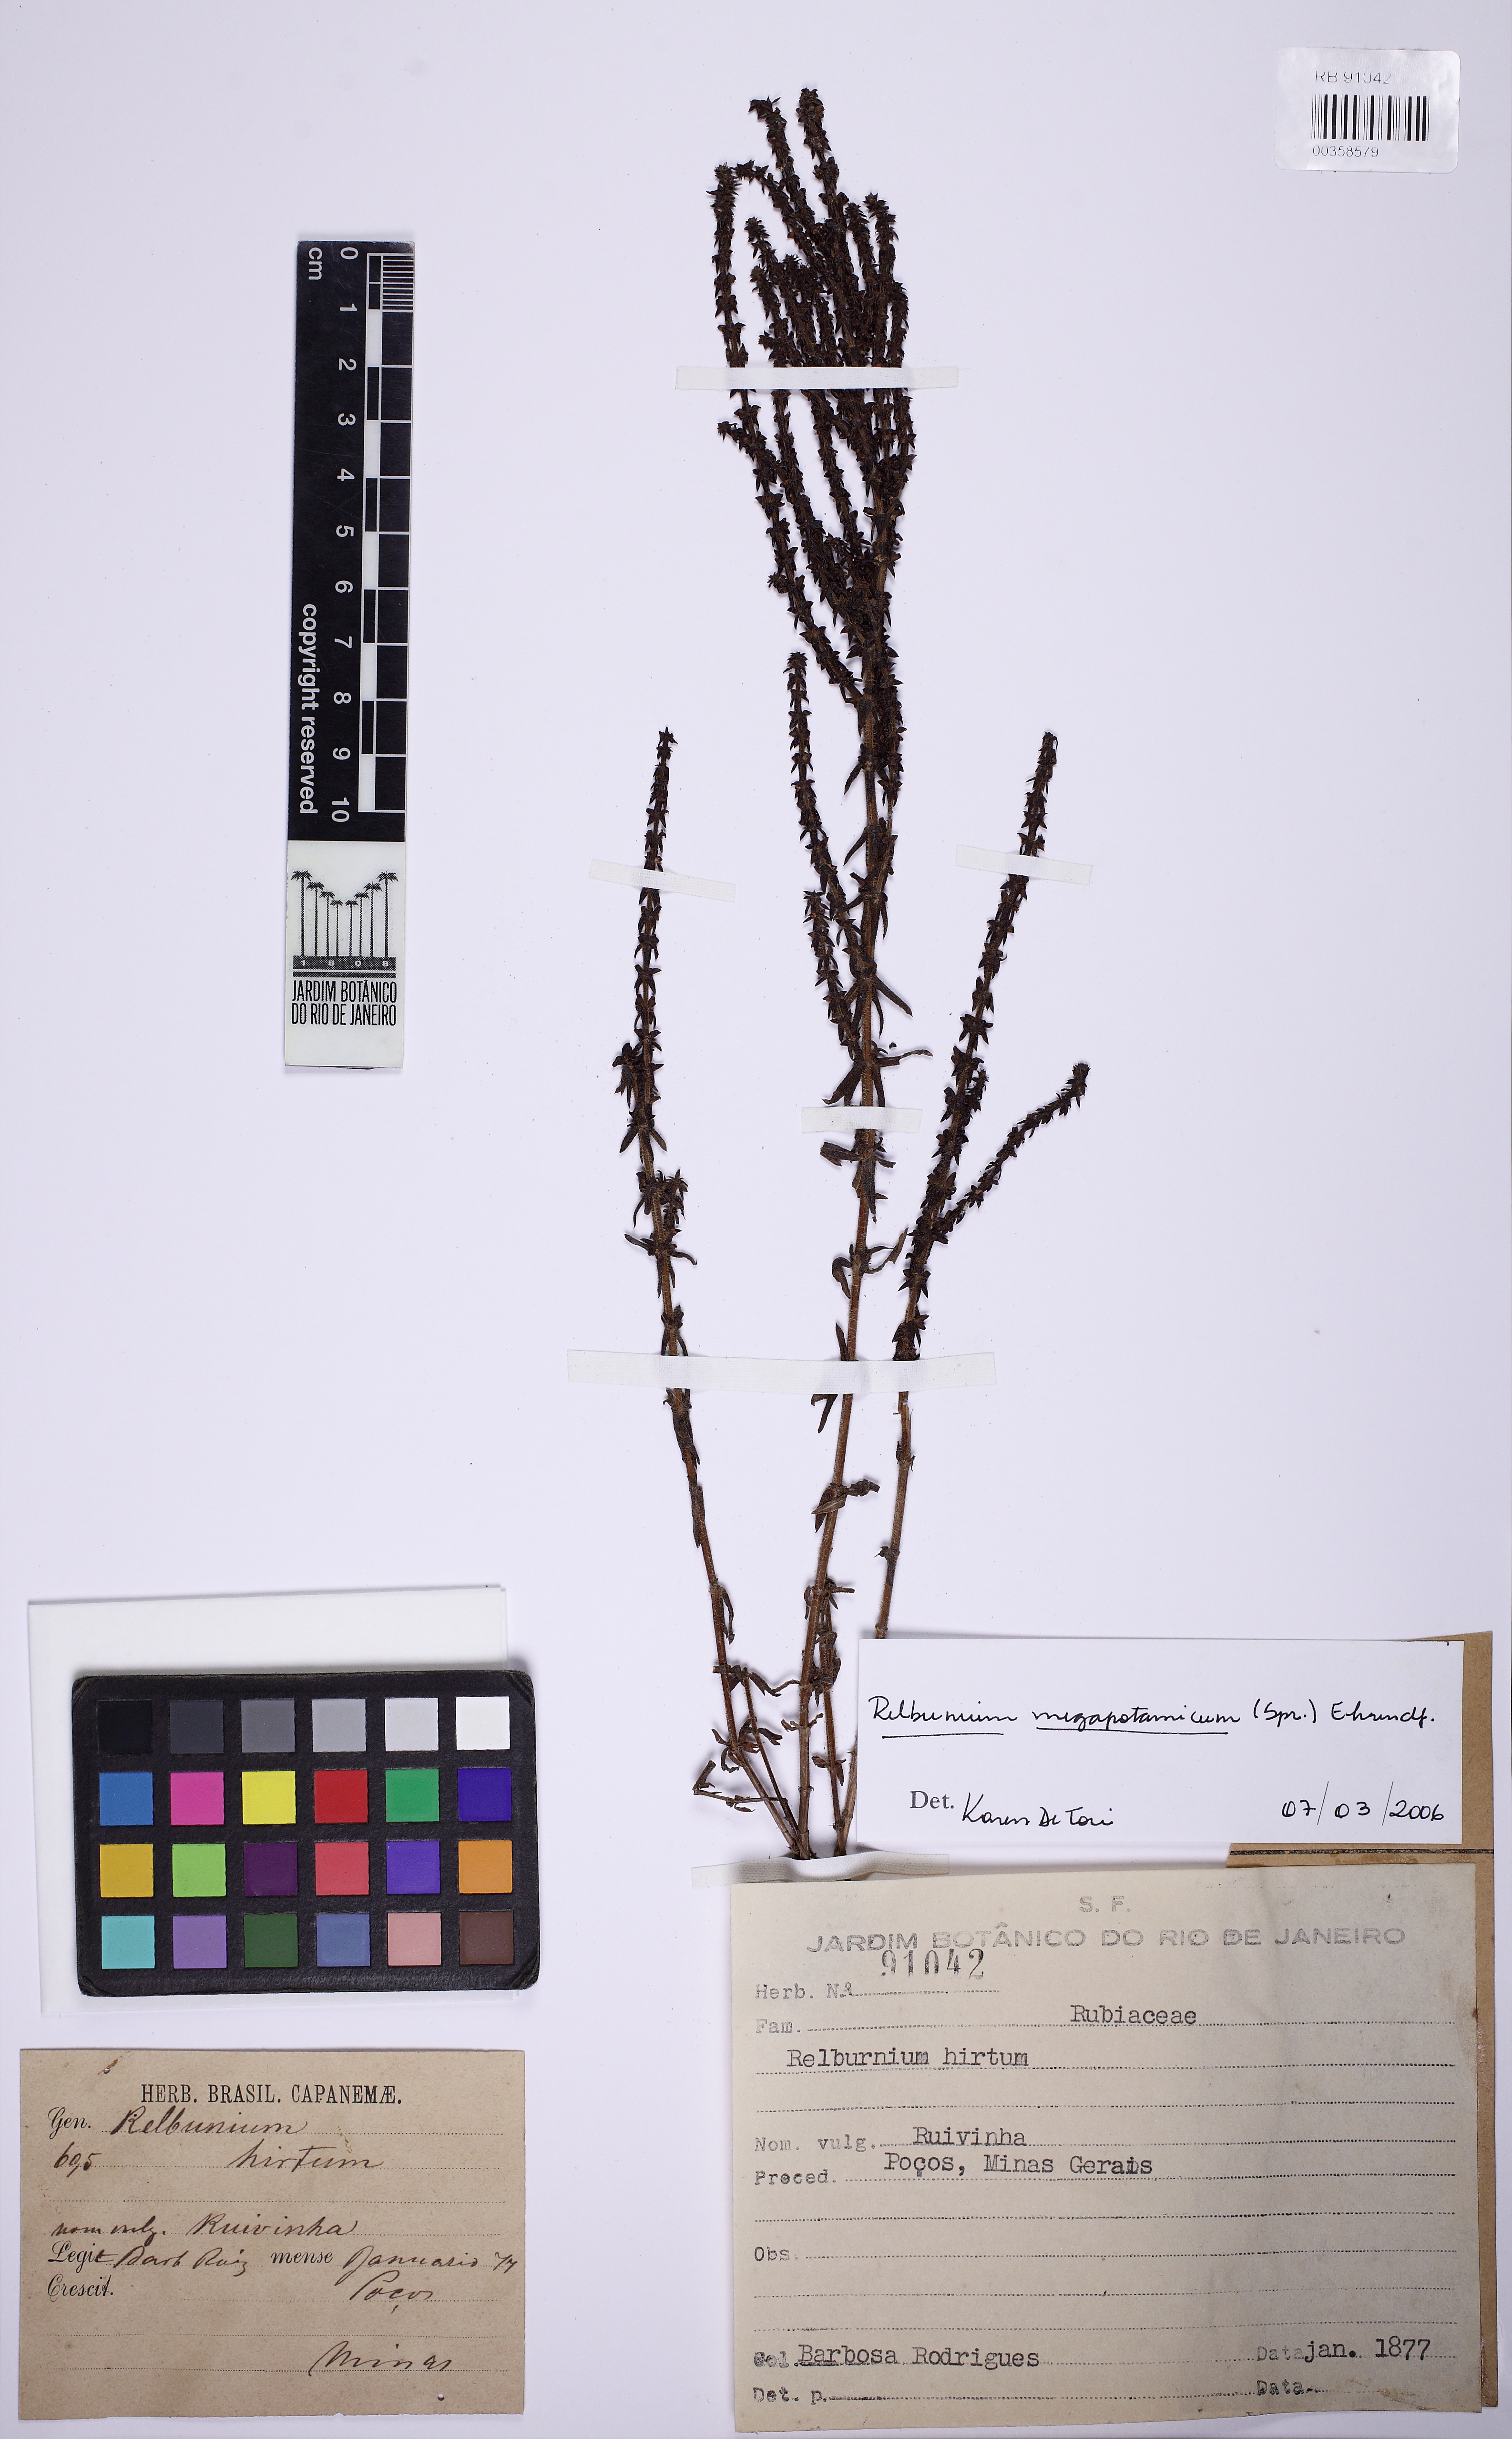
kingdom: Plantae
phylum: Tracheophyta
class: Magnoliopsida
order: Gentianales
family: Rubiaceae
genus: Galium
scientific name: Galium megapotamicum
